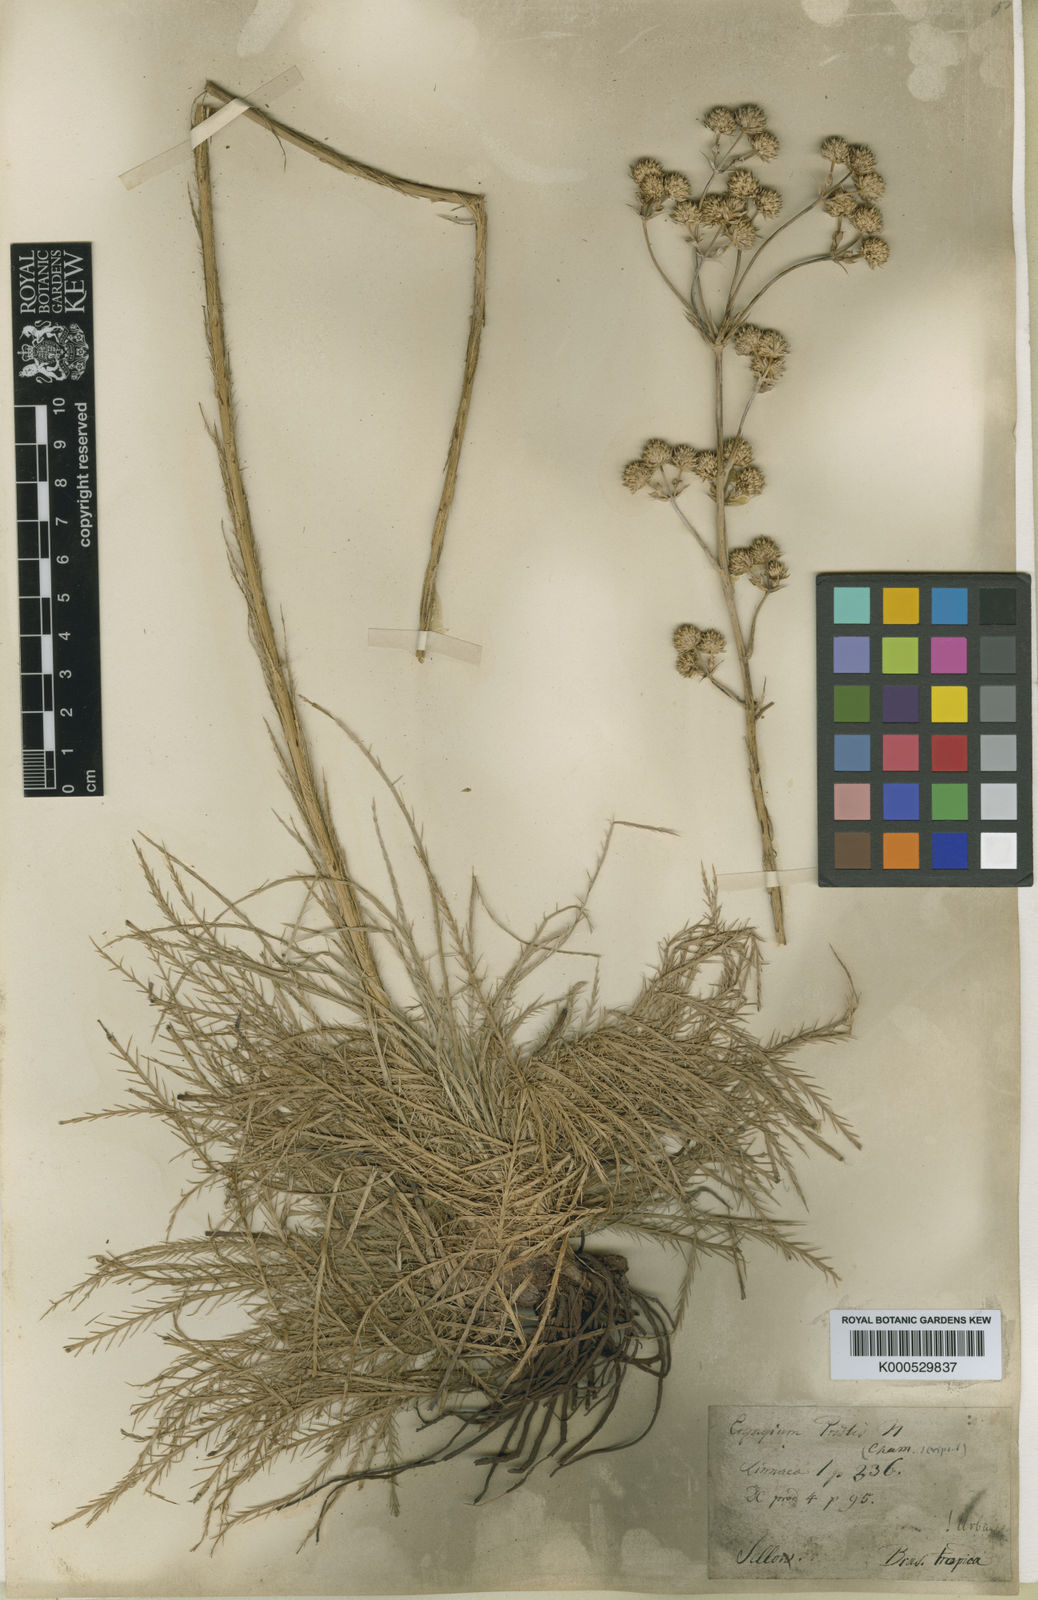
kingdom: Plantae
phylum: Tracheophyta
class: Magnoliopsida
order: Apiales
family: Apiaceae
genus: Eryngium
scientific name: Eryngium pristis
